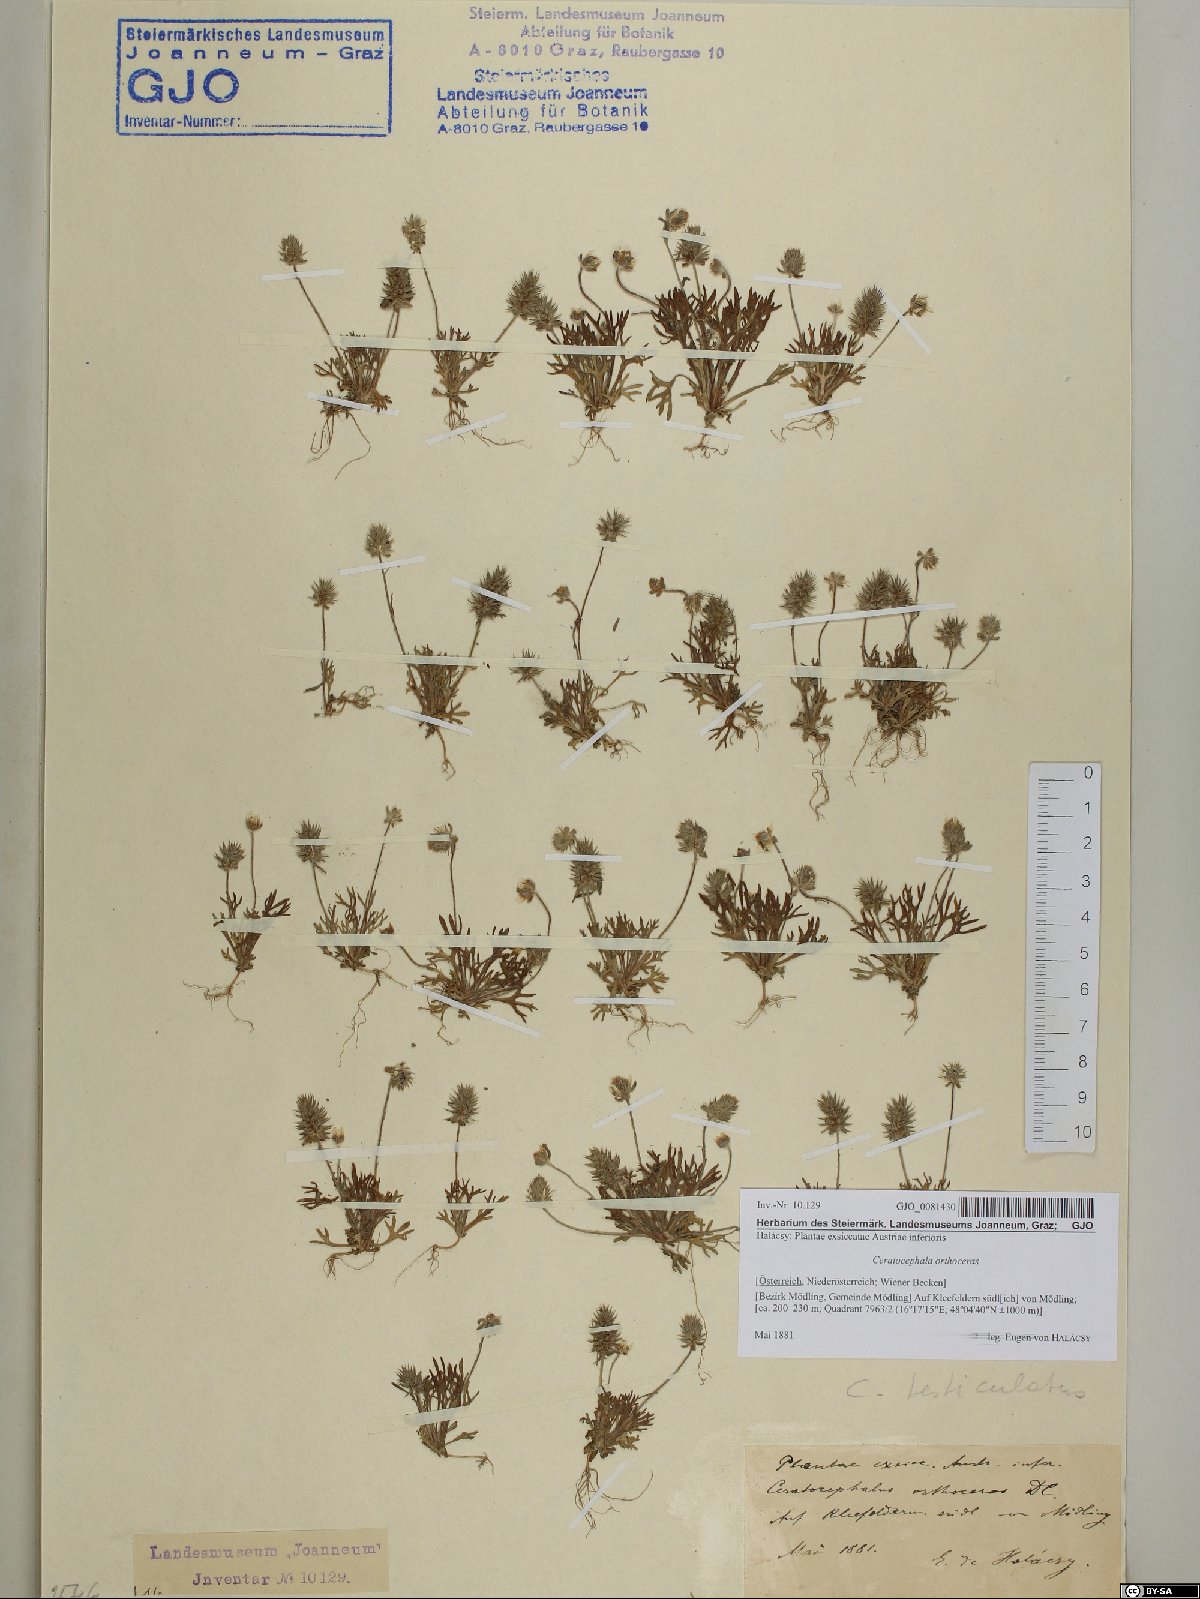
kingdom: Plantae
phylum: Tracheophyta
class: Magnoliopsida
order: Ranunculales
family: Ranunculaceae
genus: Ceratocephala
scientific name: Ceratocephala orthoceras
